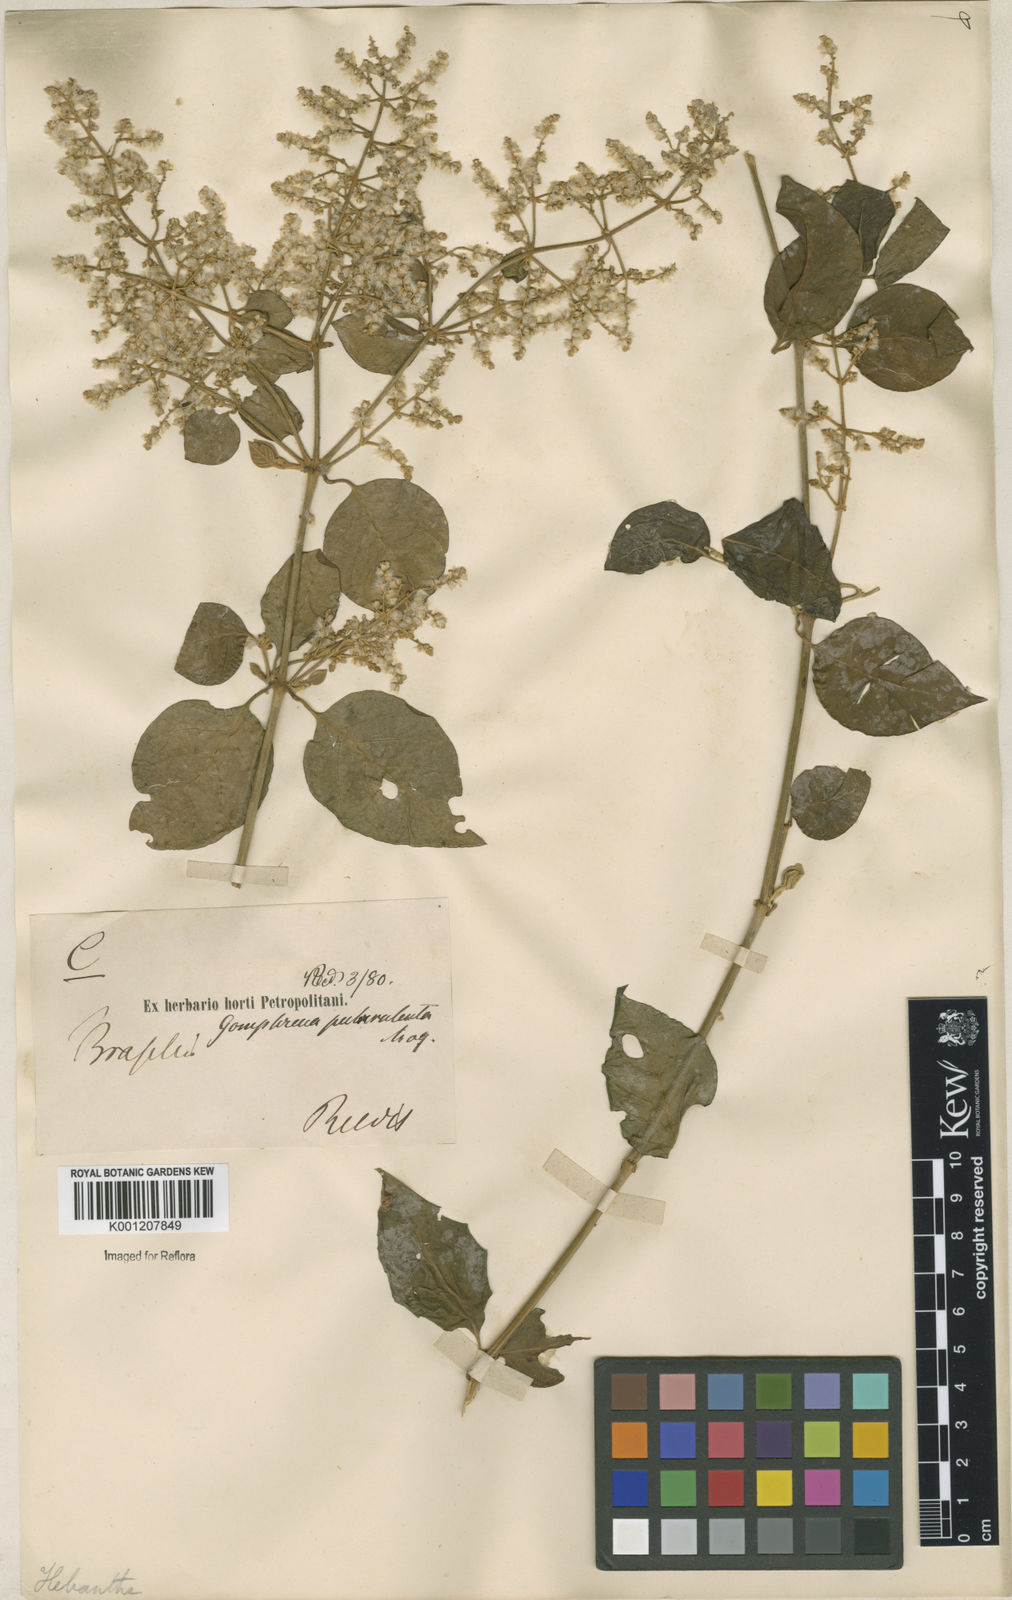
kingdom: Plantae
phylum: Tracheophyta
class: Magnoliopsida
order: Caryophyllales
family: Amaranthaceae
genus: Hebanthe
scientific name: Hebanthe pulverulenta
